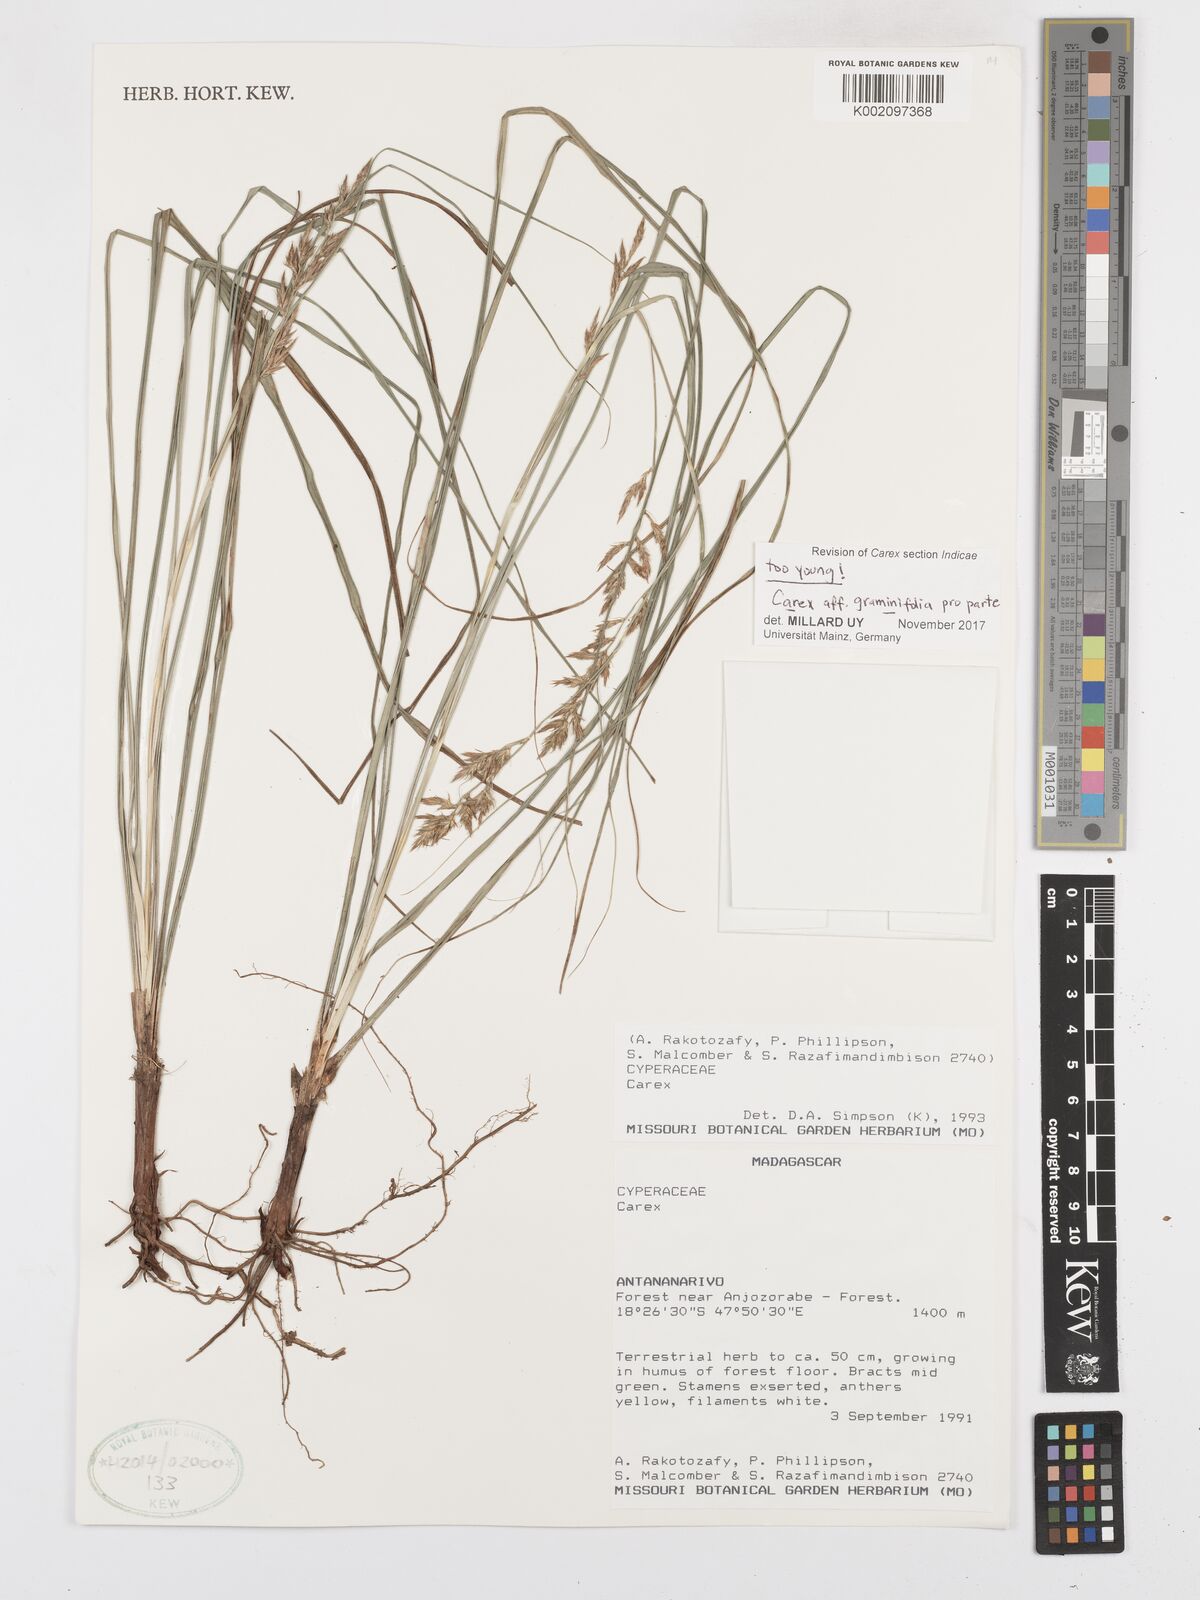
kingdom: Plantae
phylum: Tracheophyta
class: Liliopsida
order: Poales
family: Cyperaceae
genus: Carex
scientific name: Carex graminifolia
